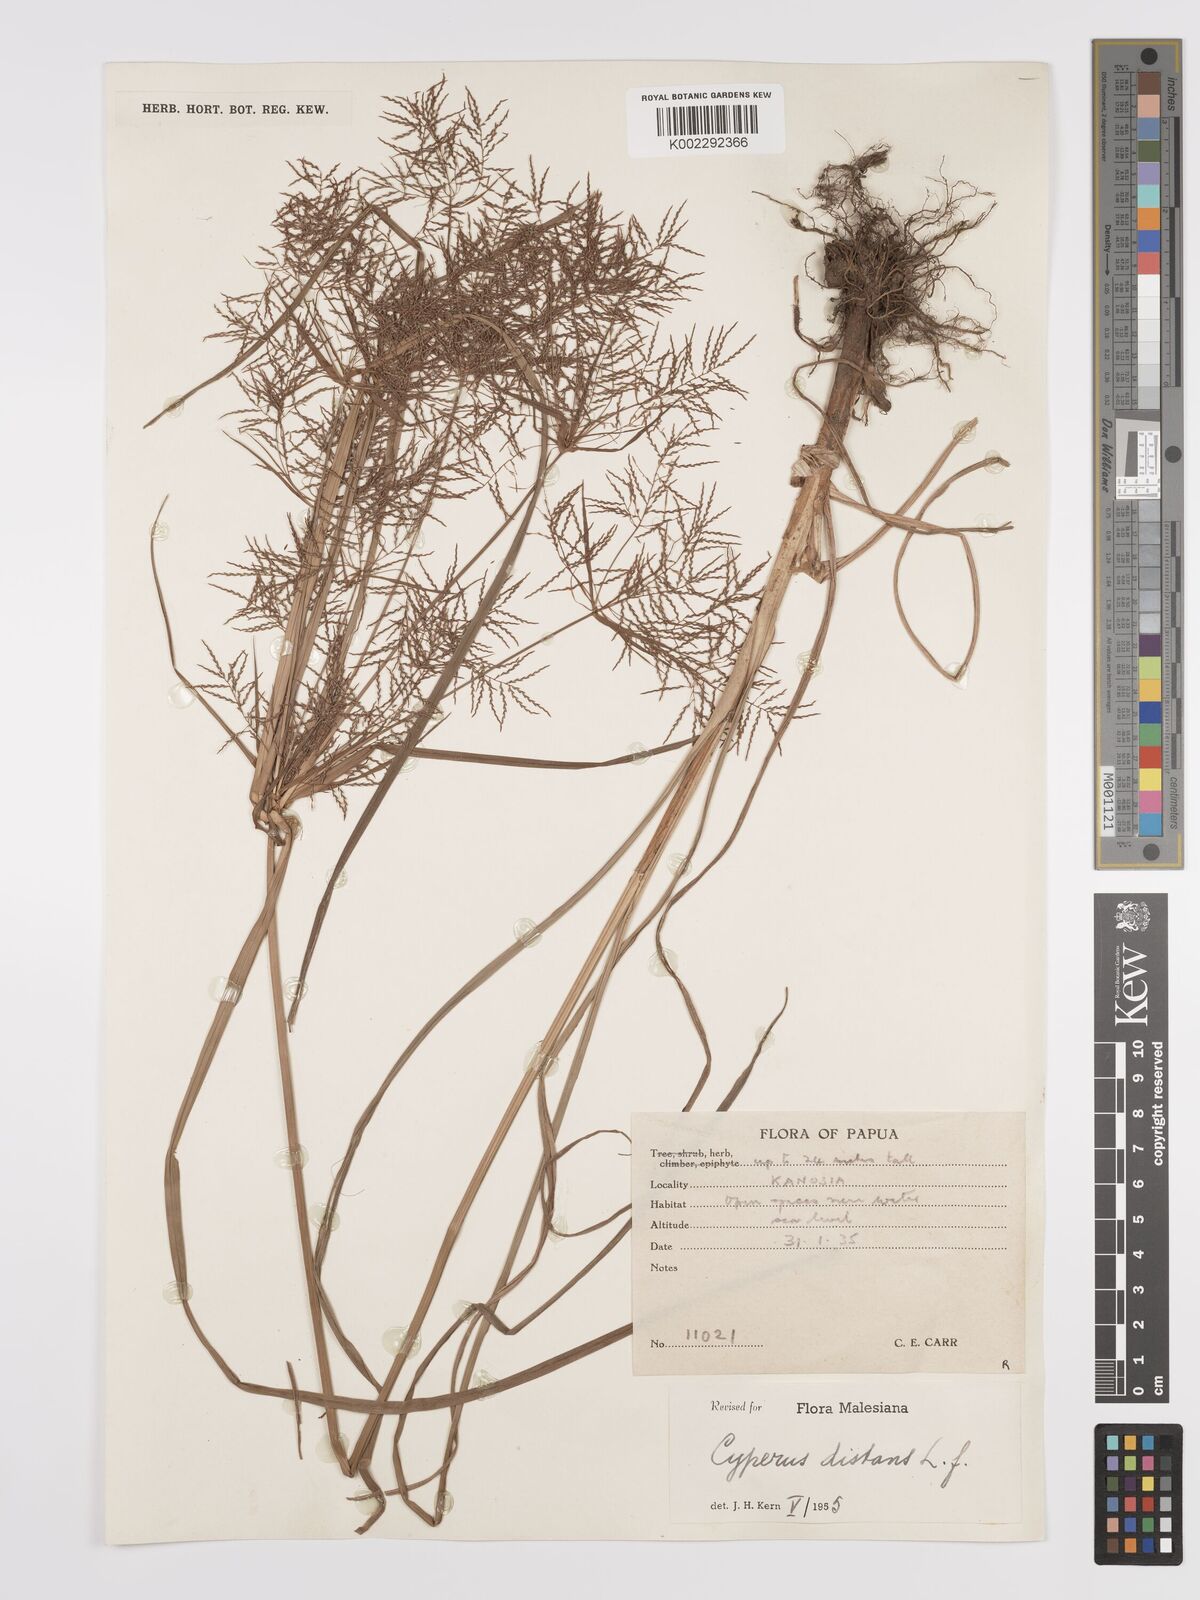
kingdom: Plantae
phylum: Tracheophyta
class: Liliopsida
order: Poales
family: Cyperaceae
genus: Cyperus
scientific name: Cyperus distans
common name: Slender cyperus
